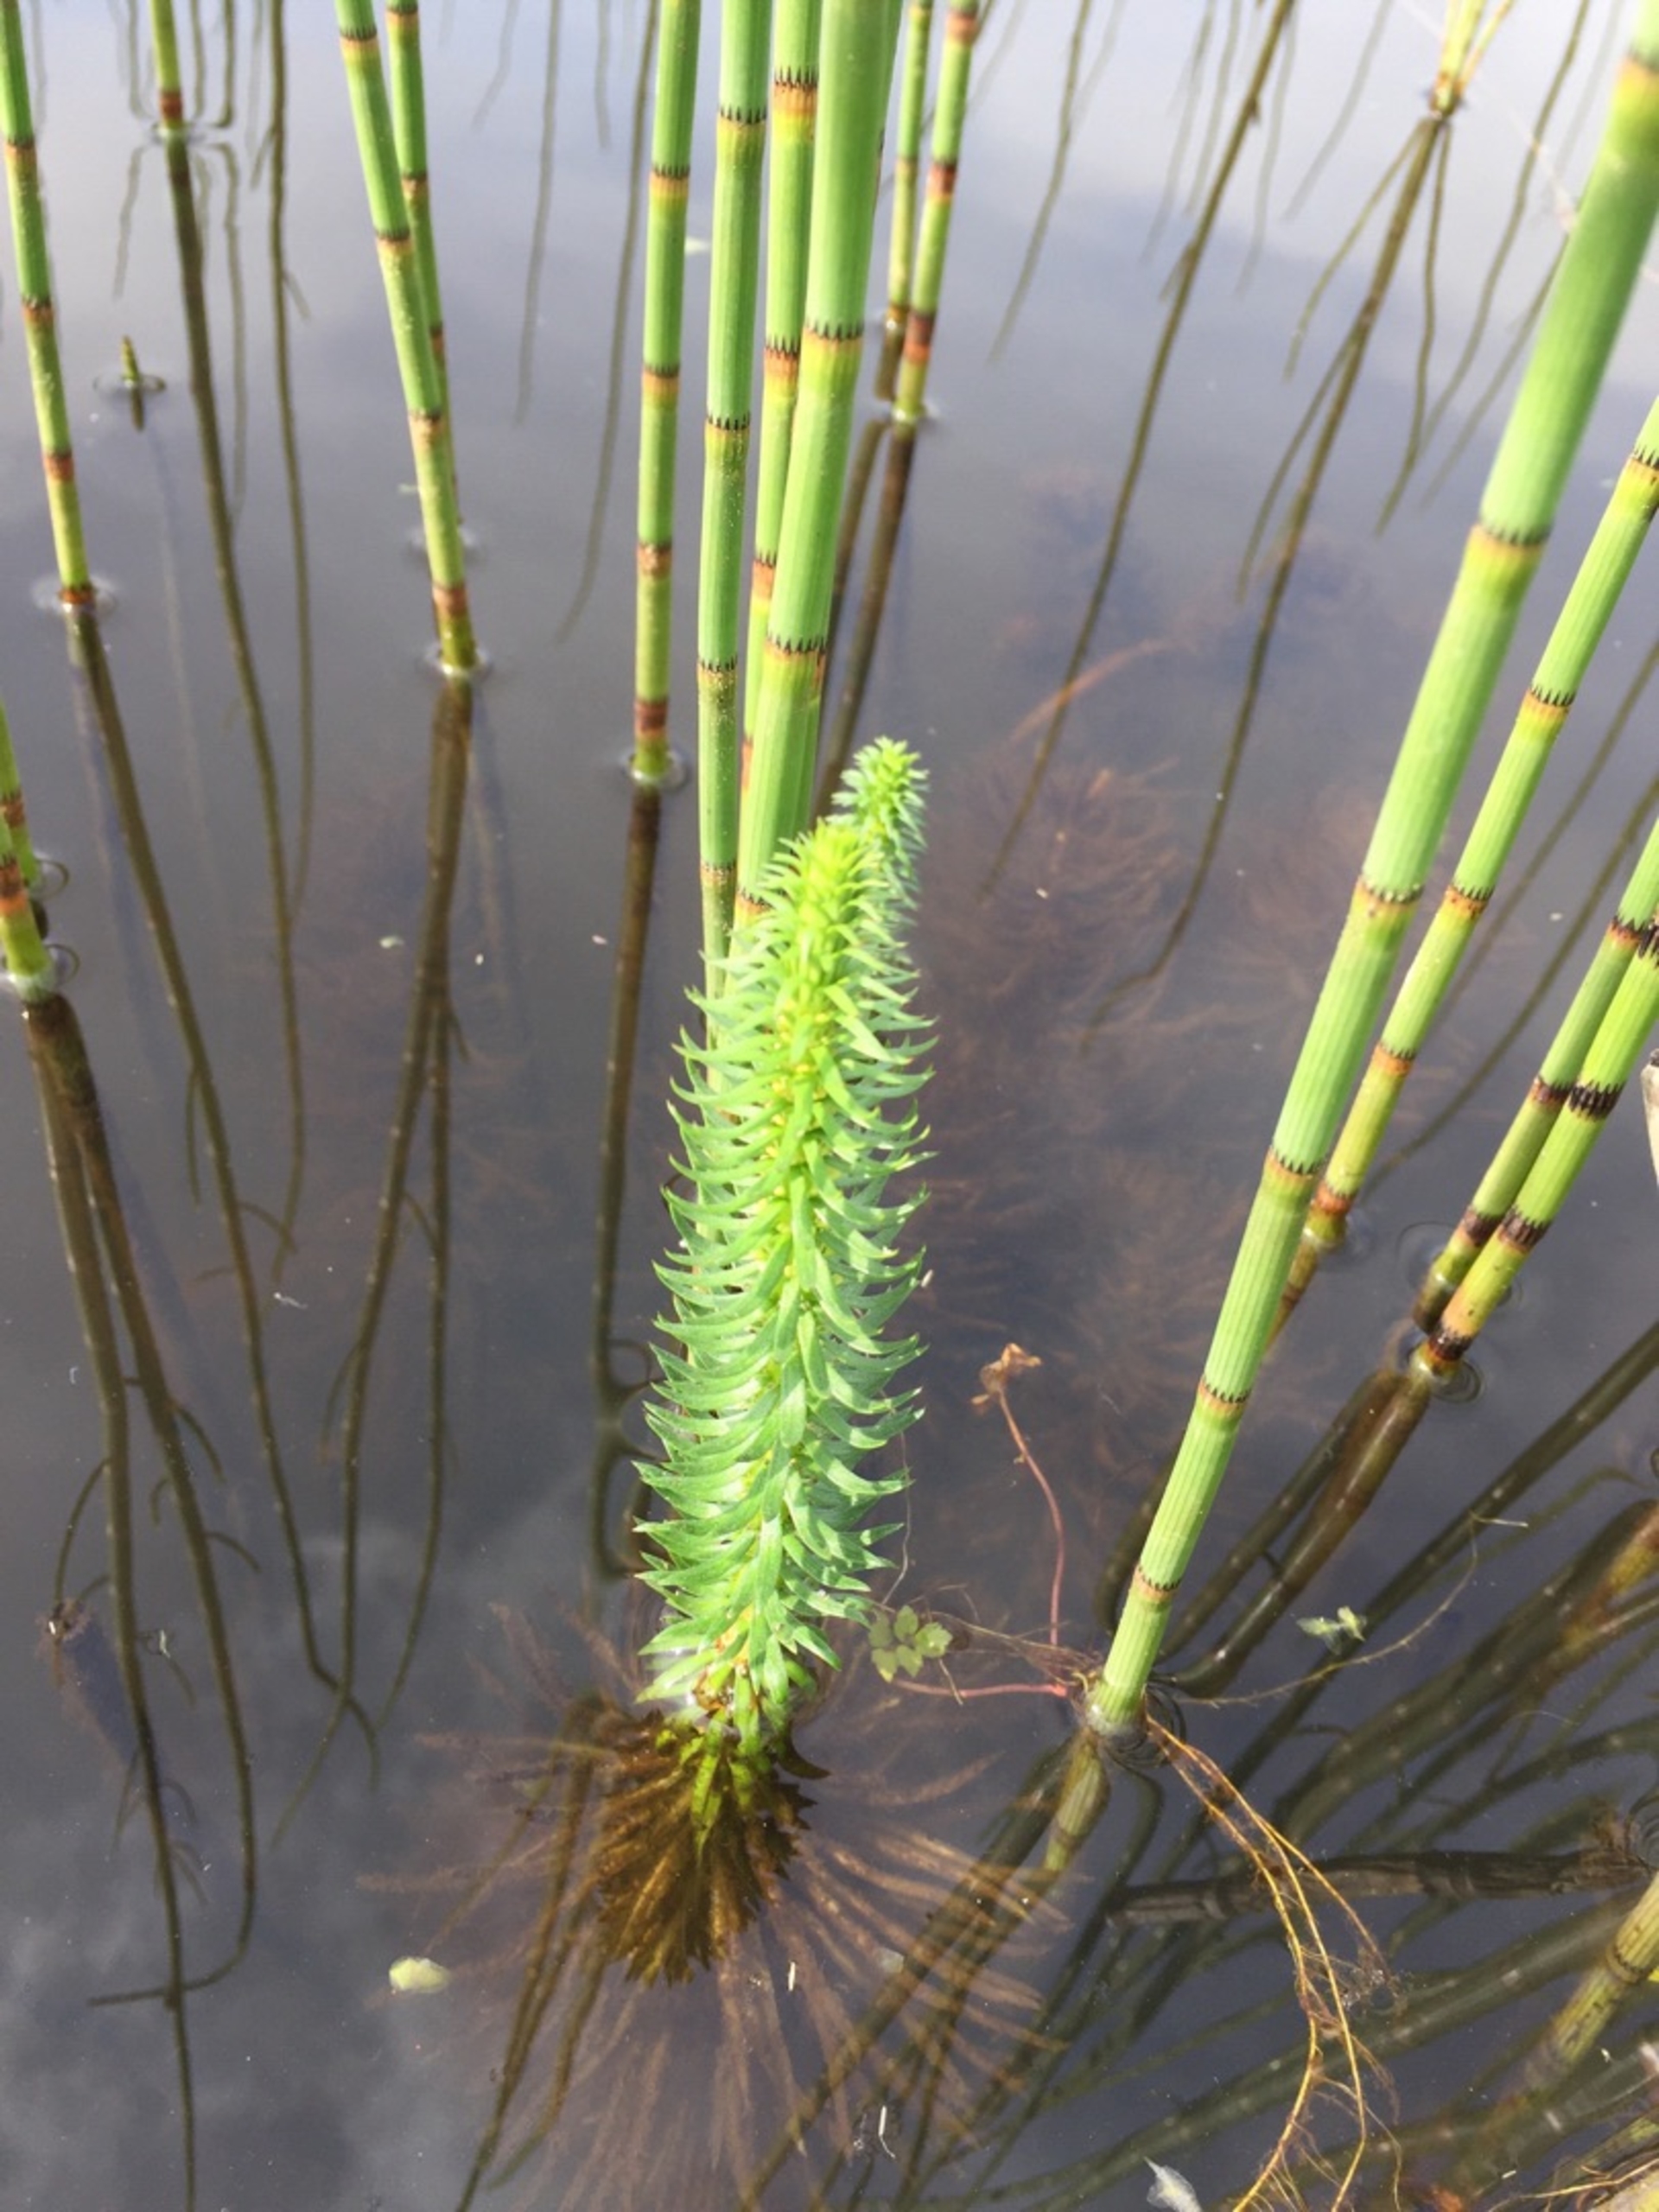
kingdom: Plantae
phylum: Tracheophyta
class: Magnoliopsida
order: Lamiales
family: Plantaginaceae
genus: Hippuris
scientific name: Hippuris vulgaris
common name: Vandspir
